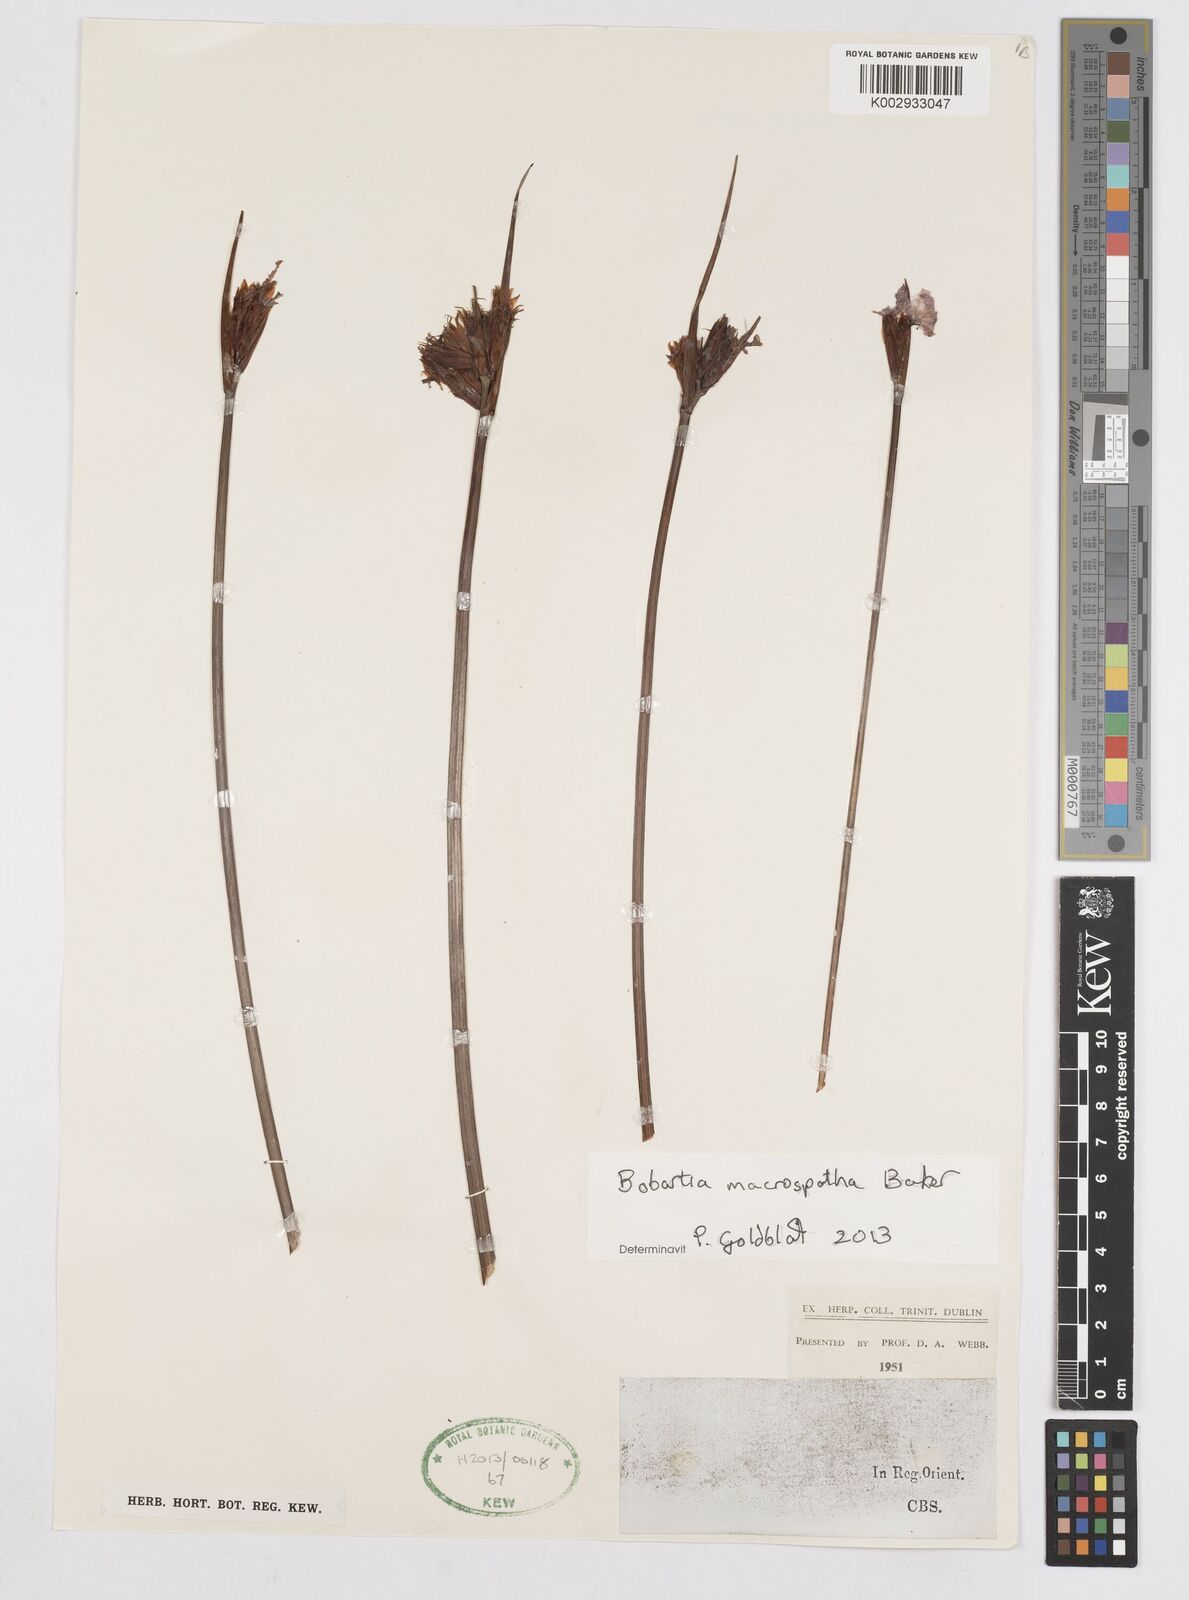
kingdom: Plantae
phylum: Tracheophyta
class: Liliopsida
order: Asparagales
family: Iridaceae
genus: Bobartia
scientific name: Bobartia macrospatha
